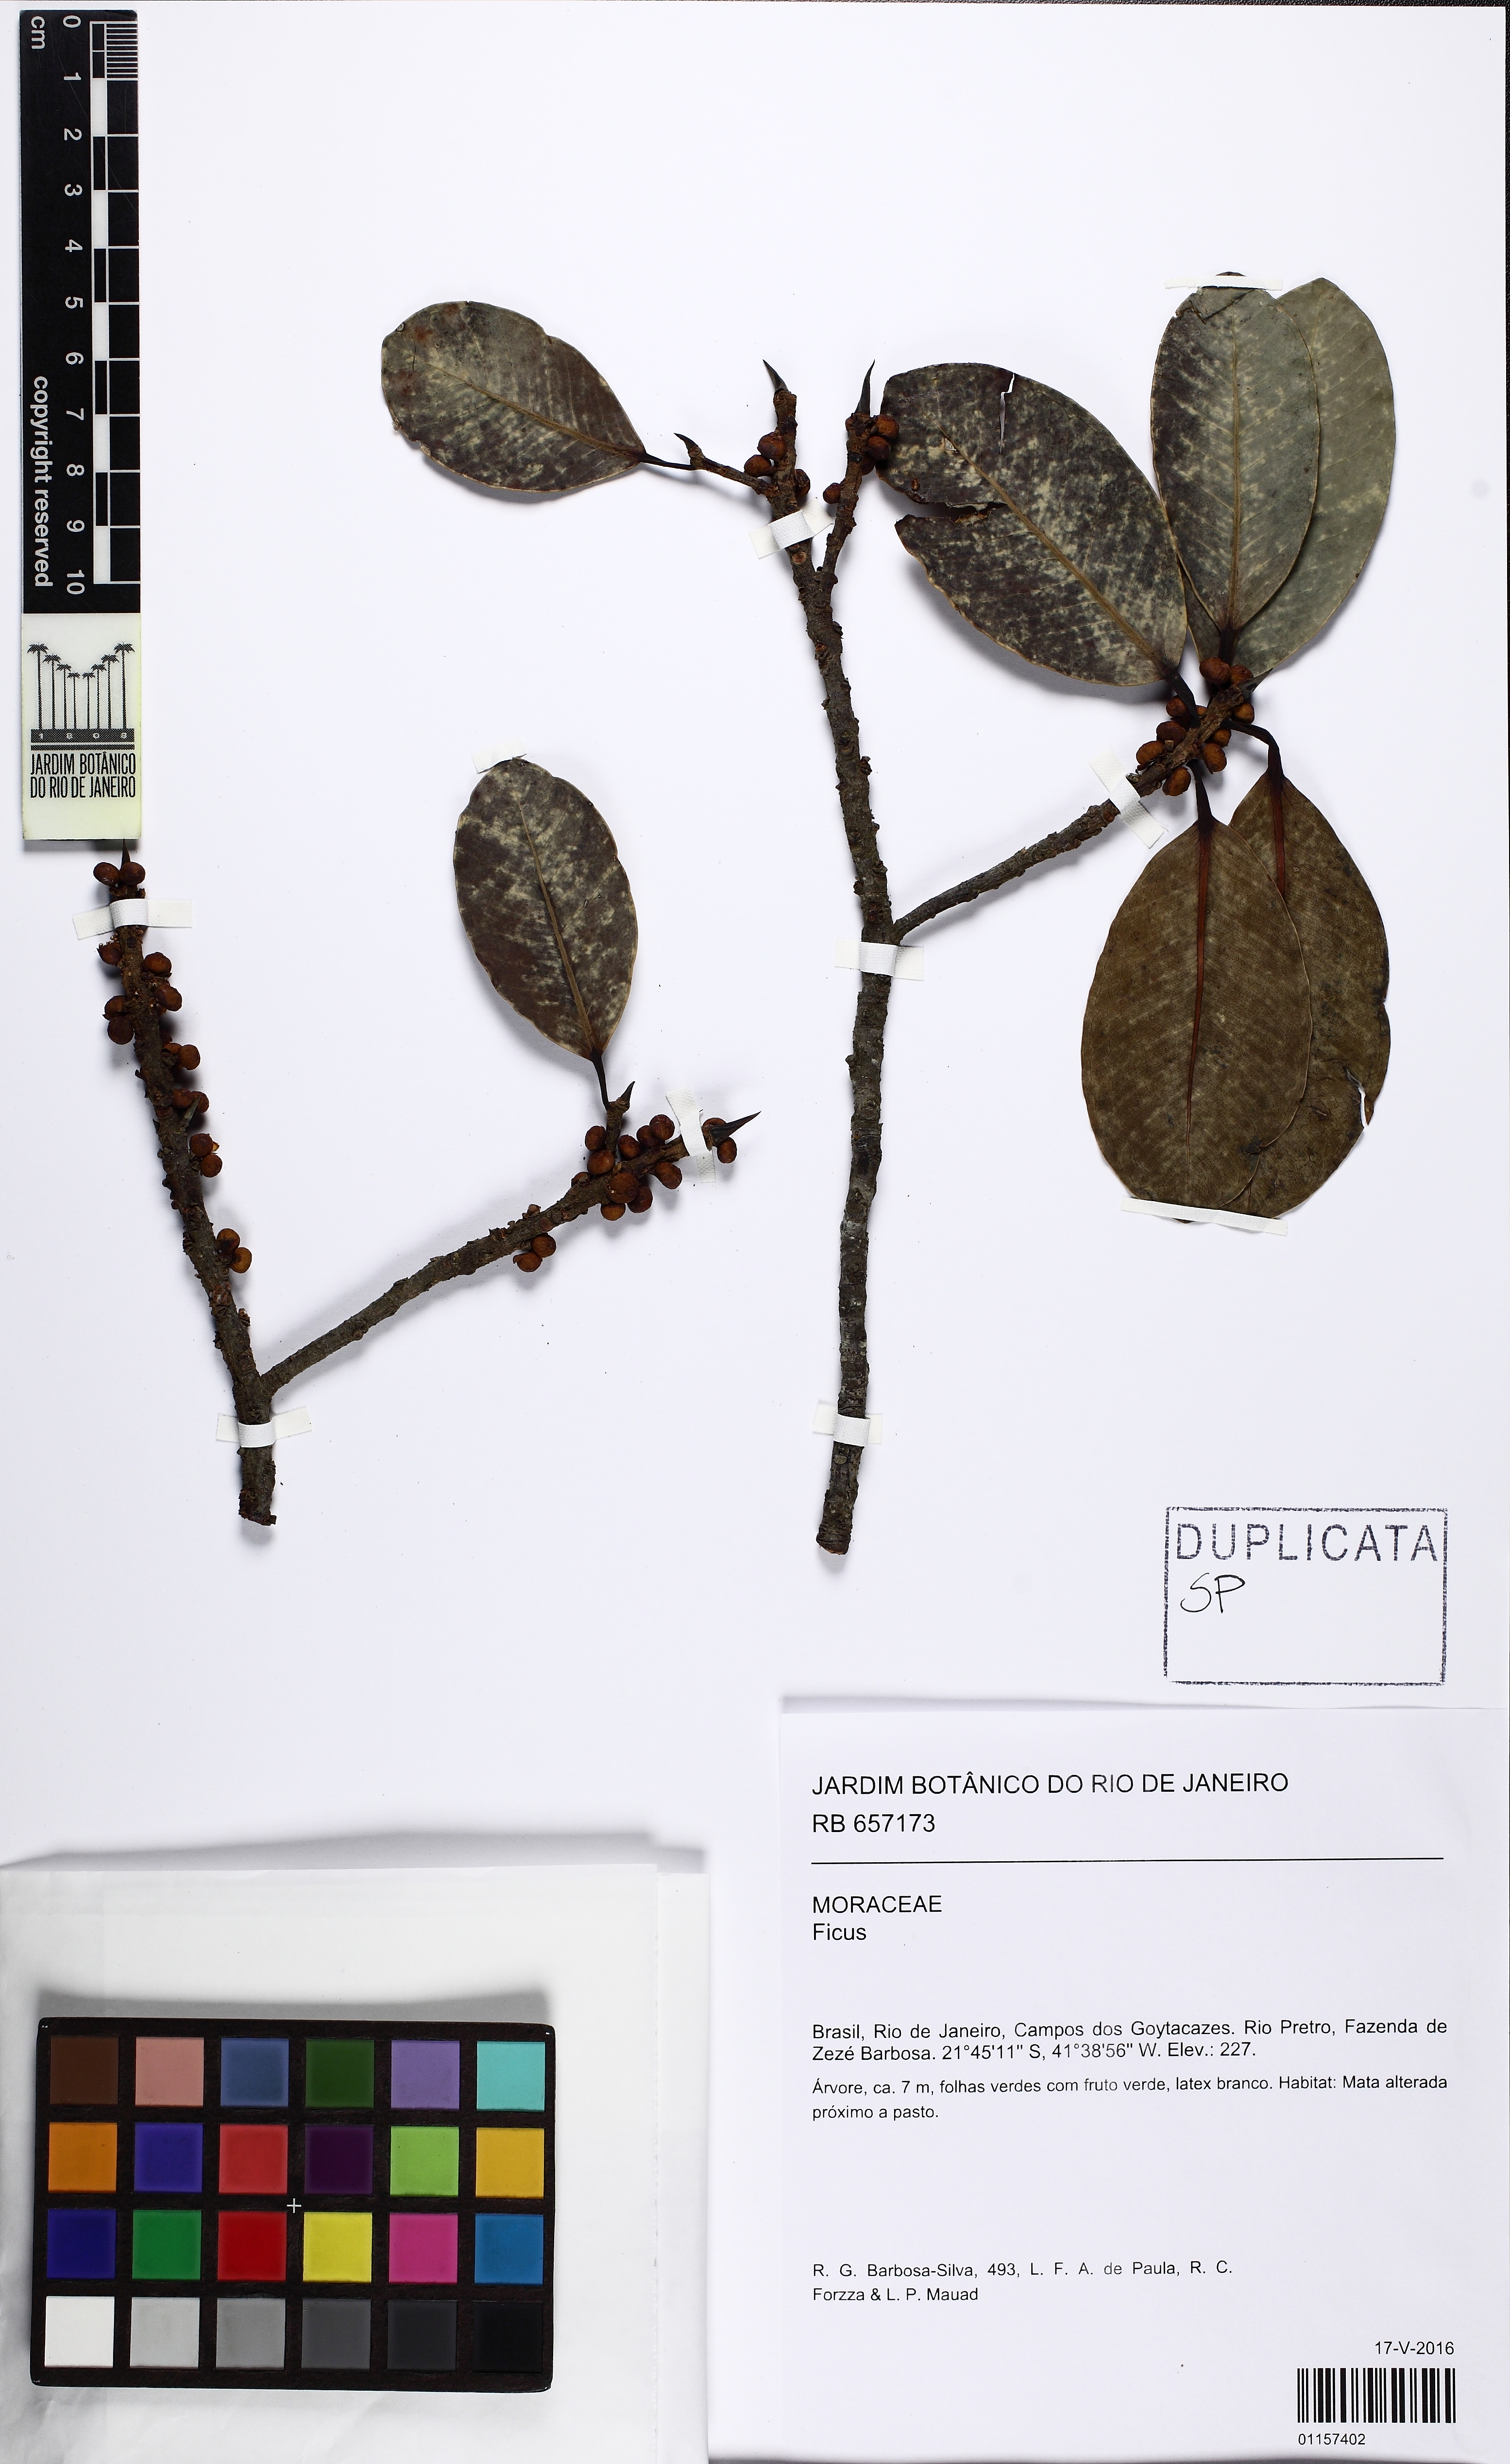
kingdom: Plantae
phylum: Tracheophyta
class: Magnoliopsida
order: Rosales
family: Moraceae
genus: Ficus
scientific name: Ficus americana
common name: Jamaican cherry fig
